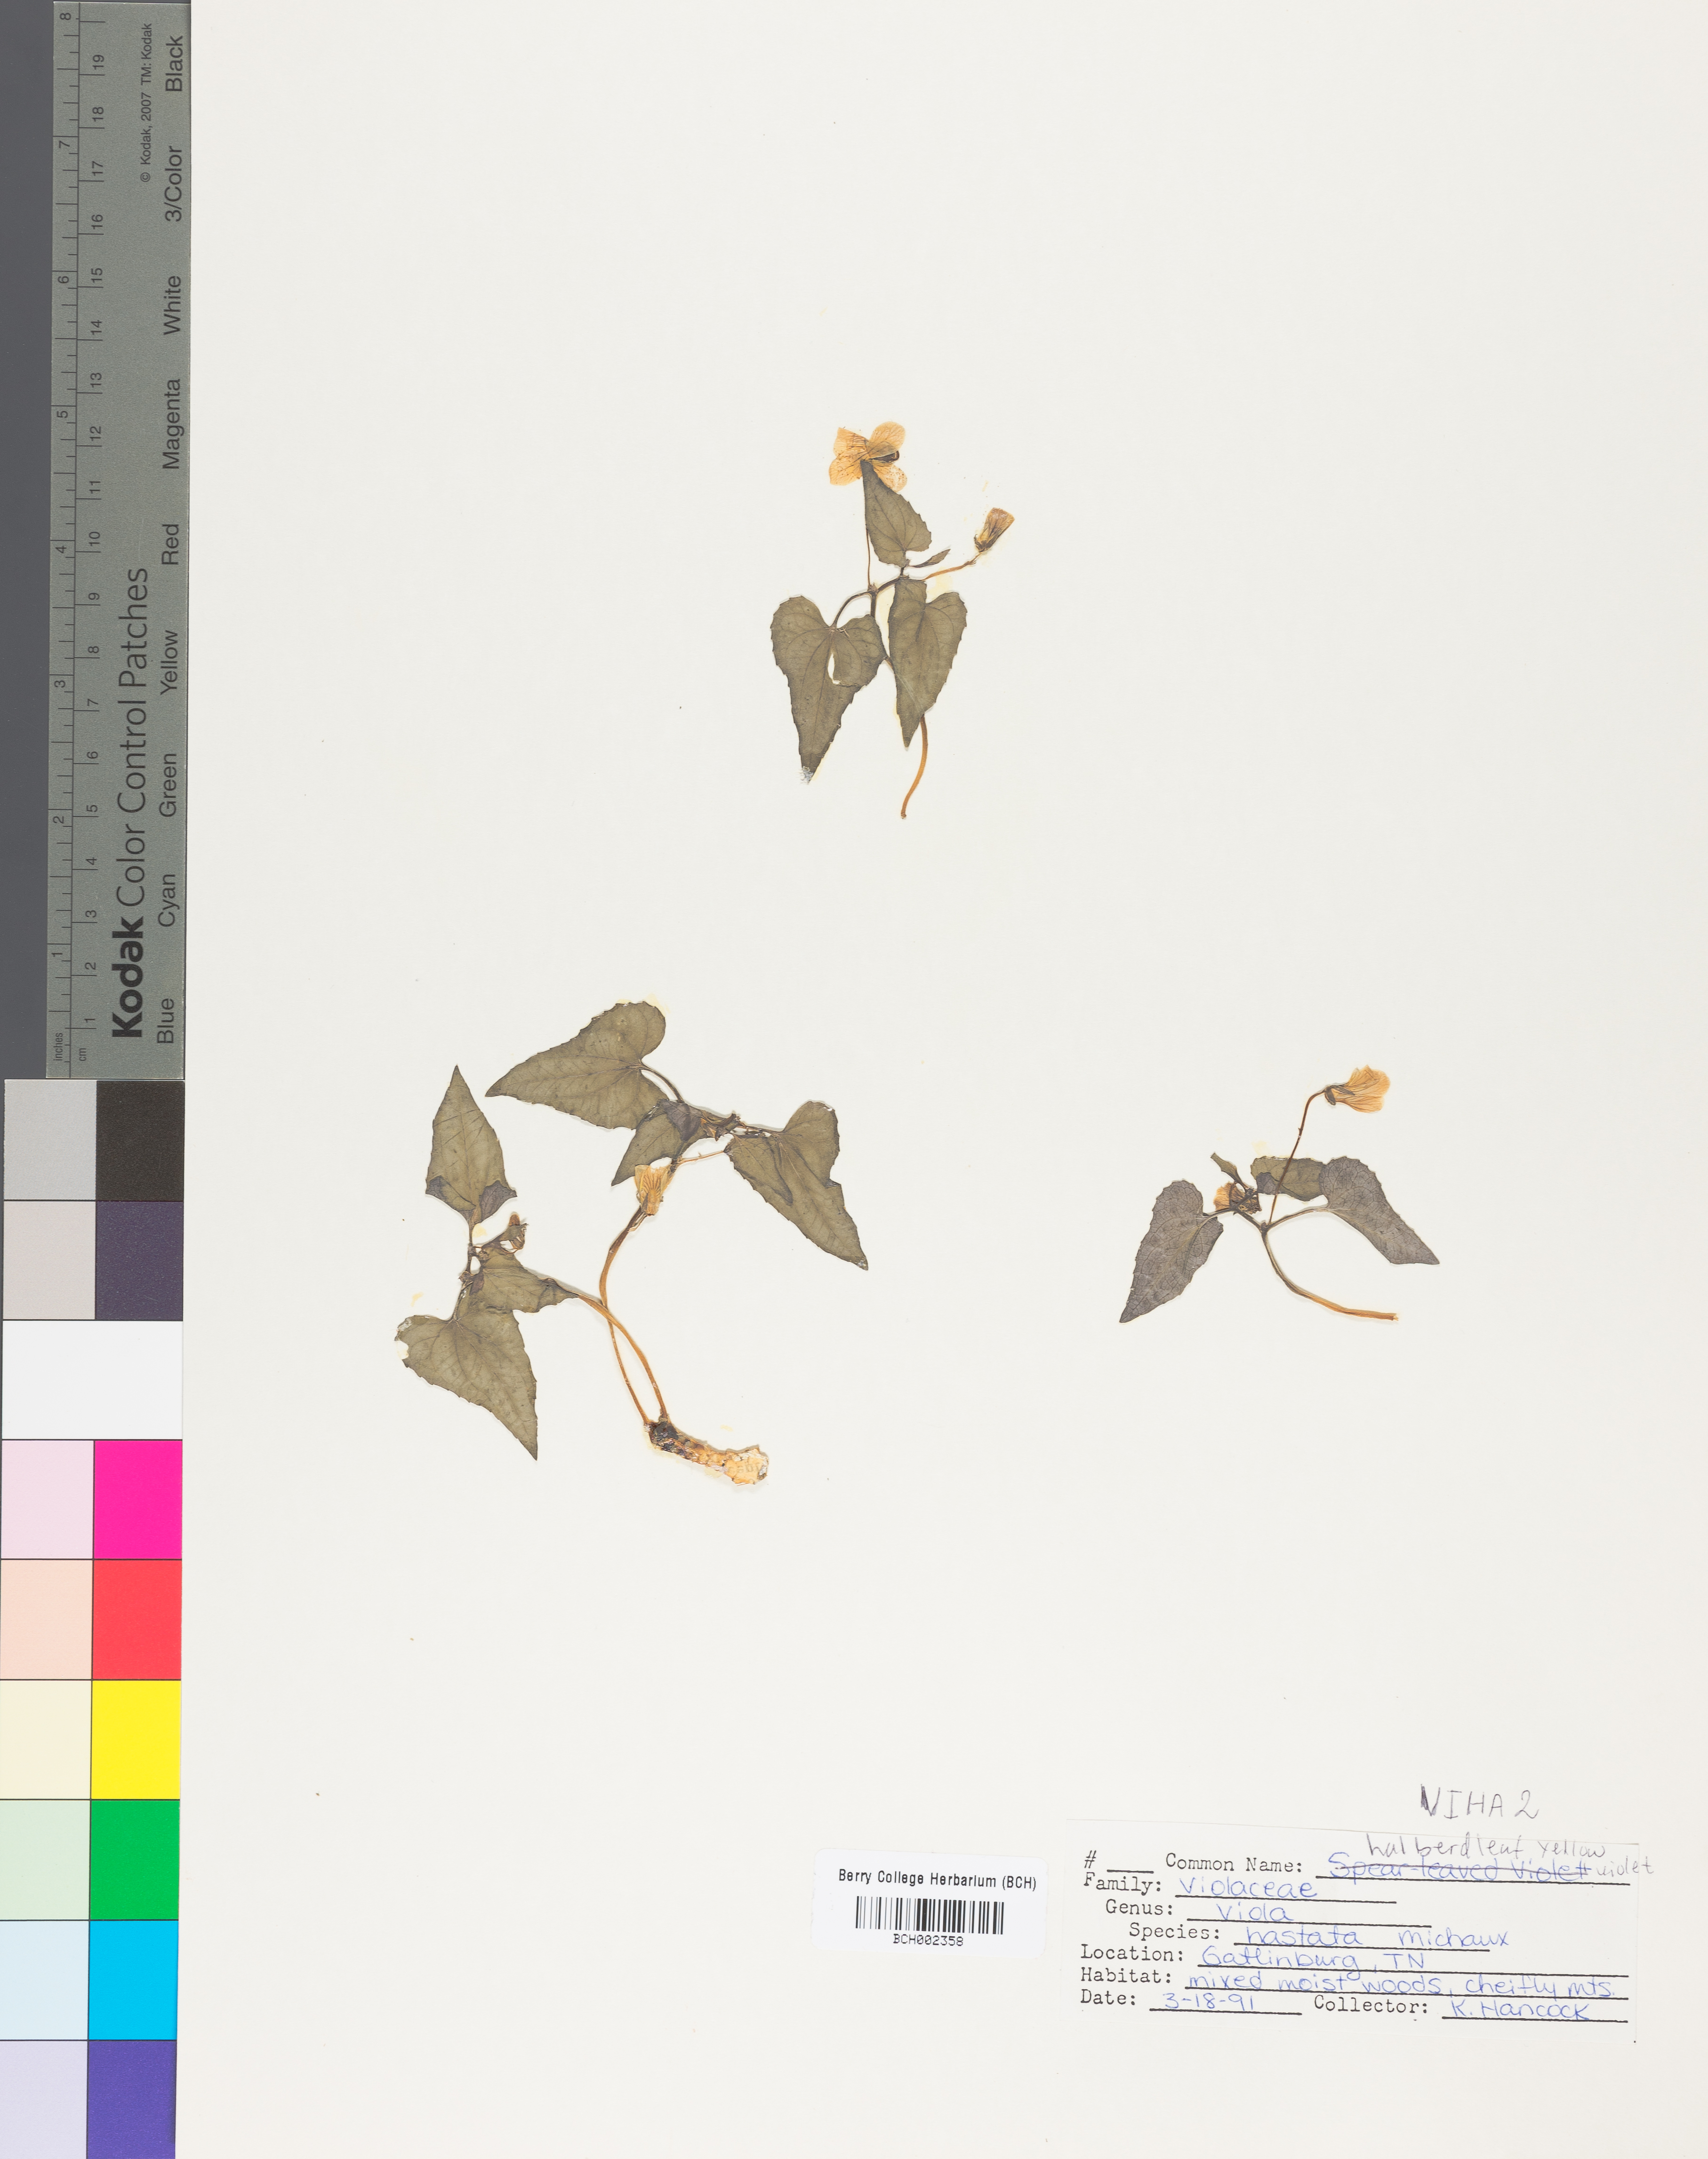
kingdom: Plantae
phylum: Tracheophyta
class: Magnoliopsida
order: Malpighiales
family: Violaceae
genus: Viola
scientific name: Viola hastata
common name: Spear-leaf violet
